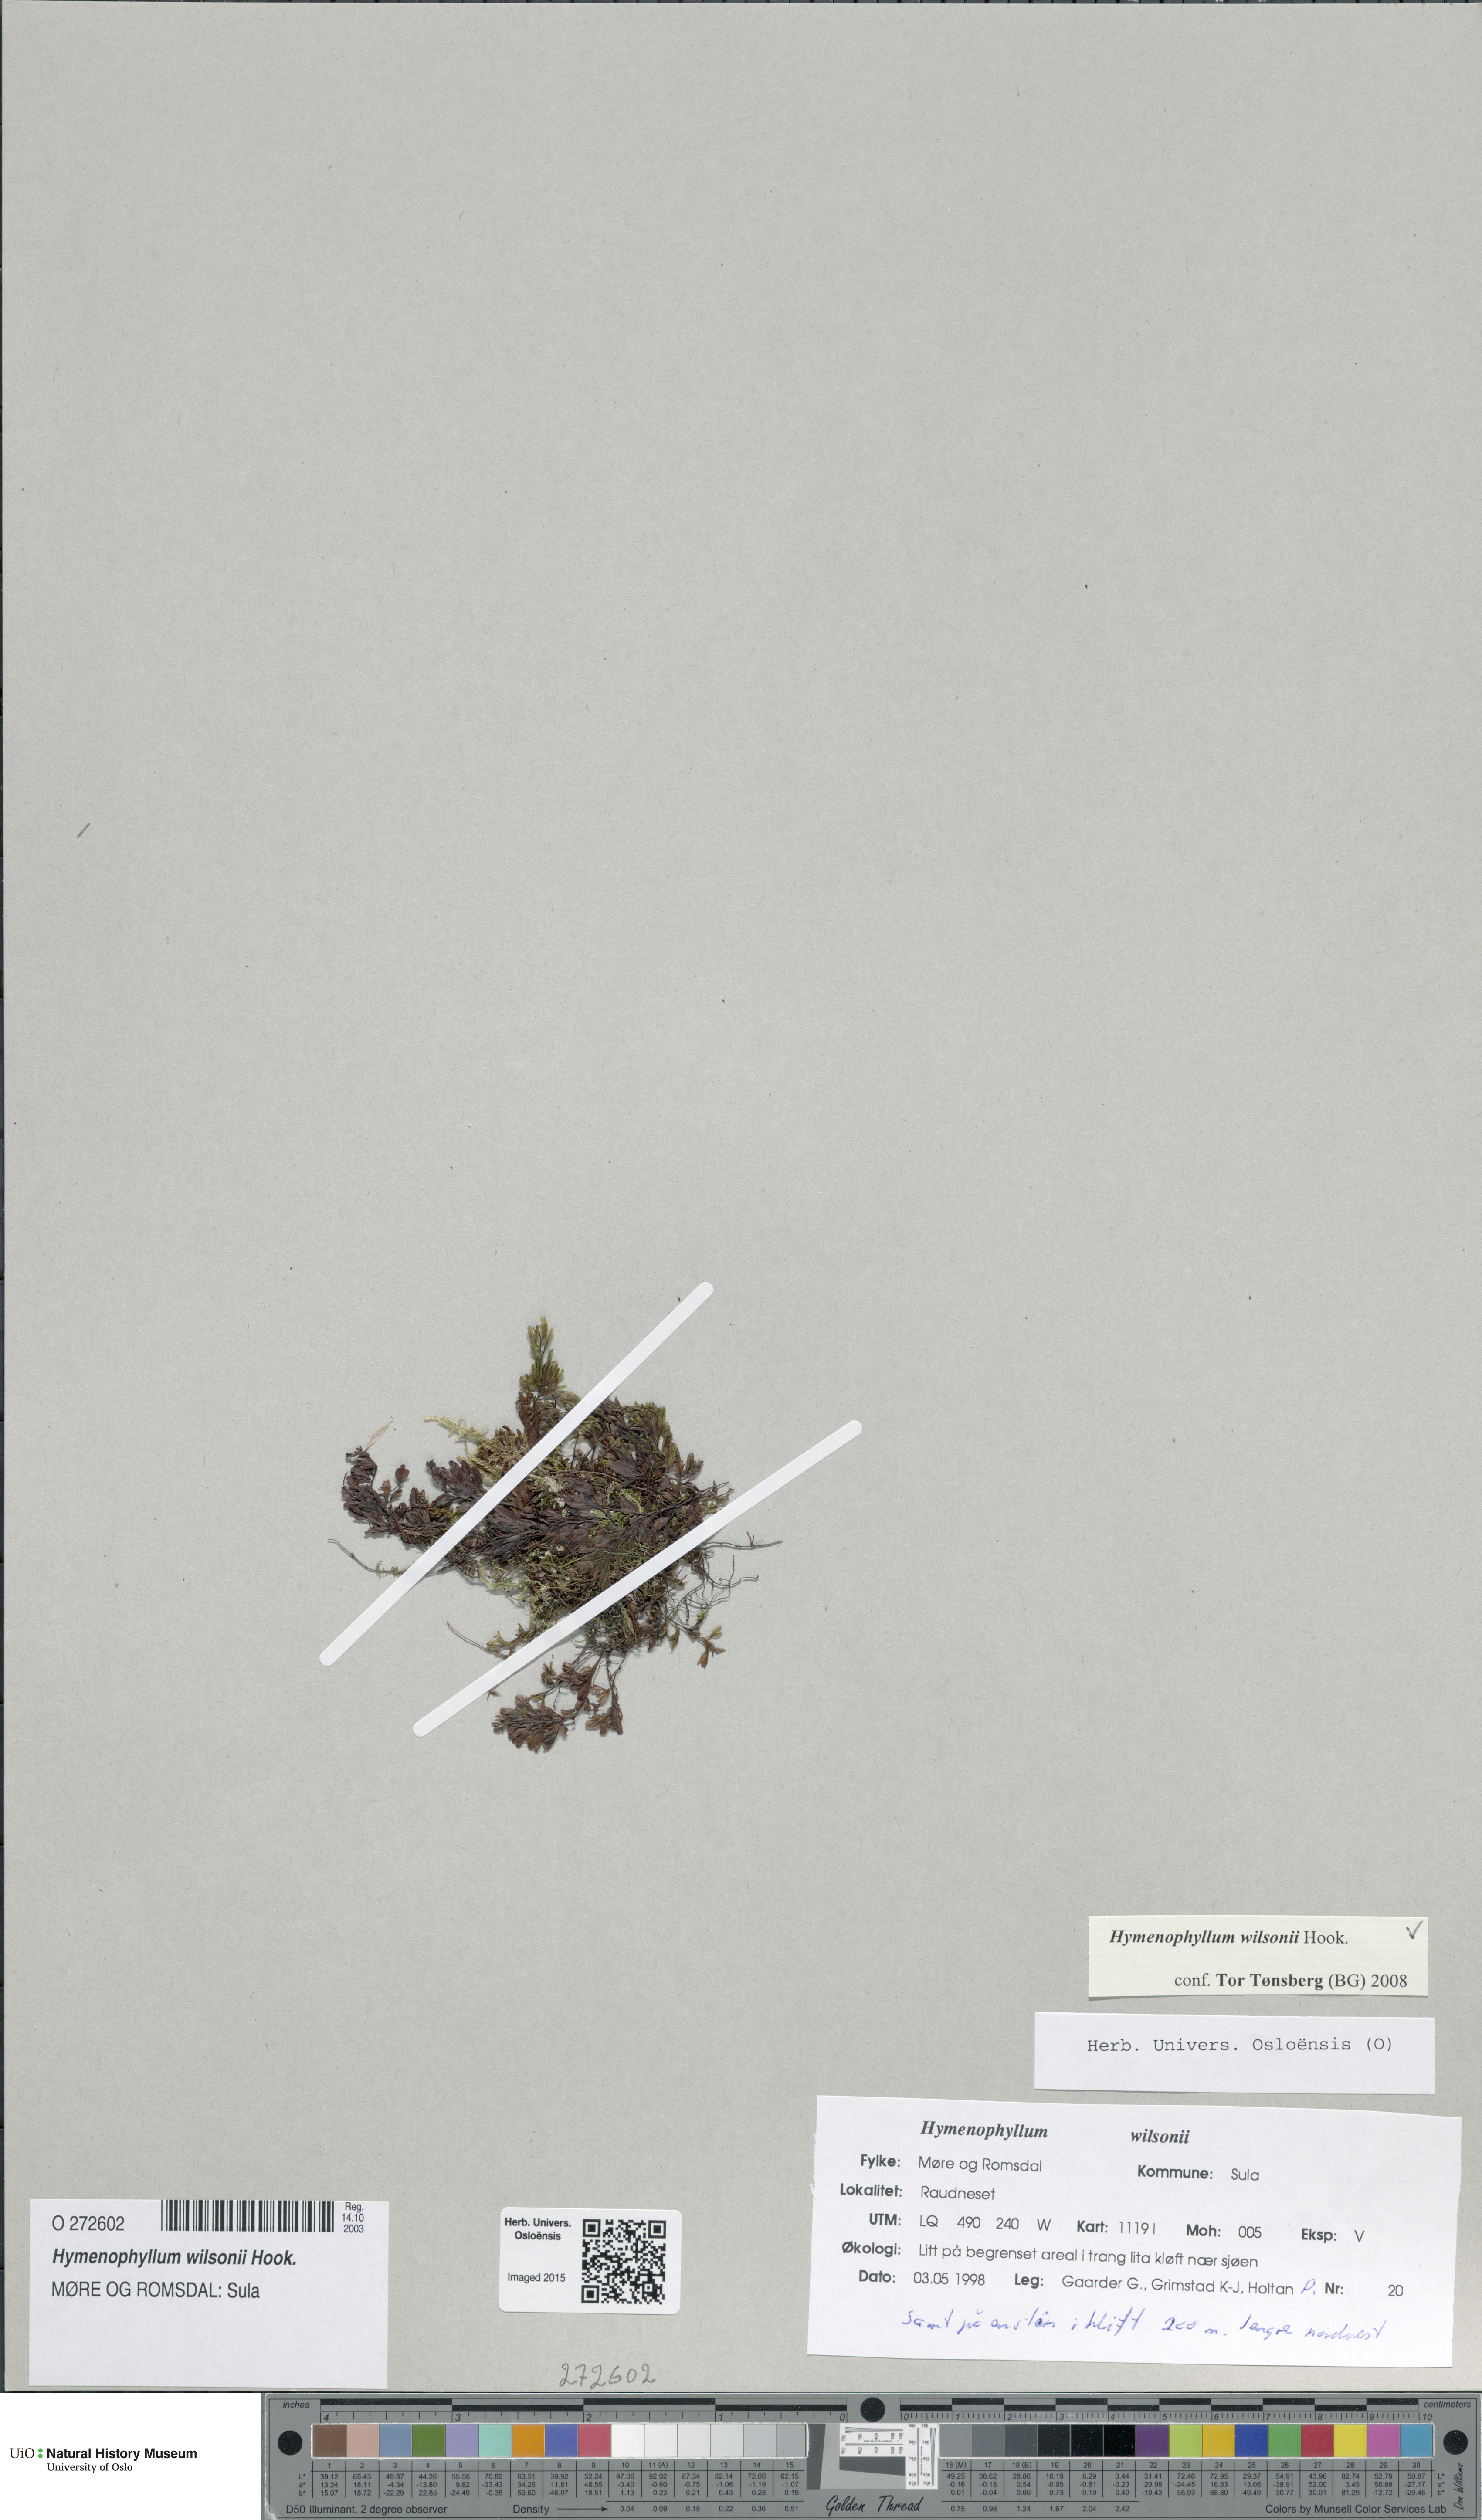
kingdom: Plantae
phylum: Tracheophyta
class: Polypodiopsida
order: Hymenophyllales
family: Hymenophyllaceae
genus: Hymenophyllum
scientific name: Hymenophyllum peltatum
